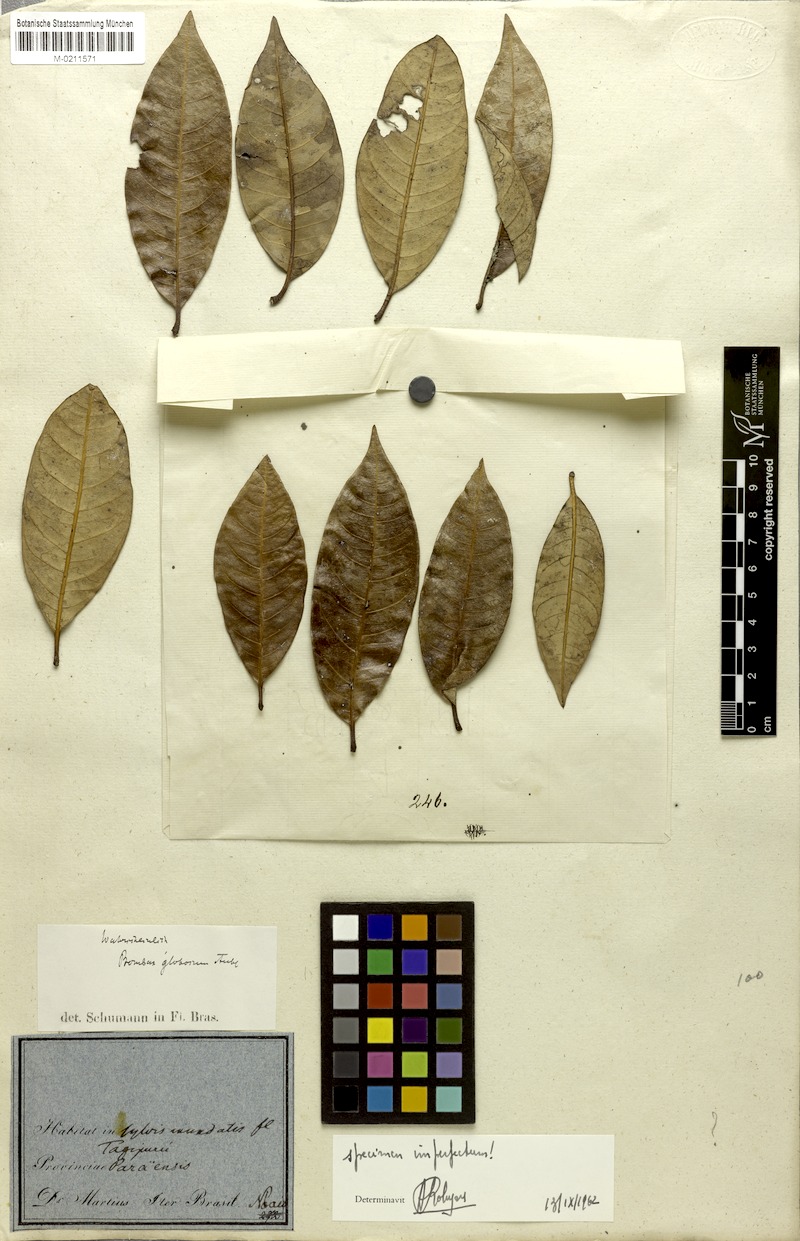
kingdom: Plantae
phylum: Tracheophyta
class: Magnoliopsida
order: Malvales
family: Malvaceae
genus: Eriotheca
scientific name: Eriotheca globosa
